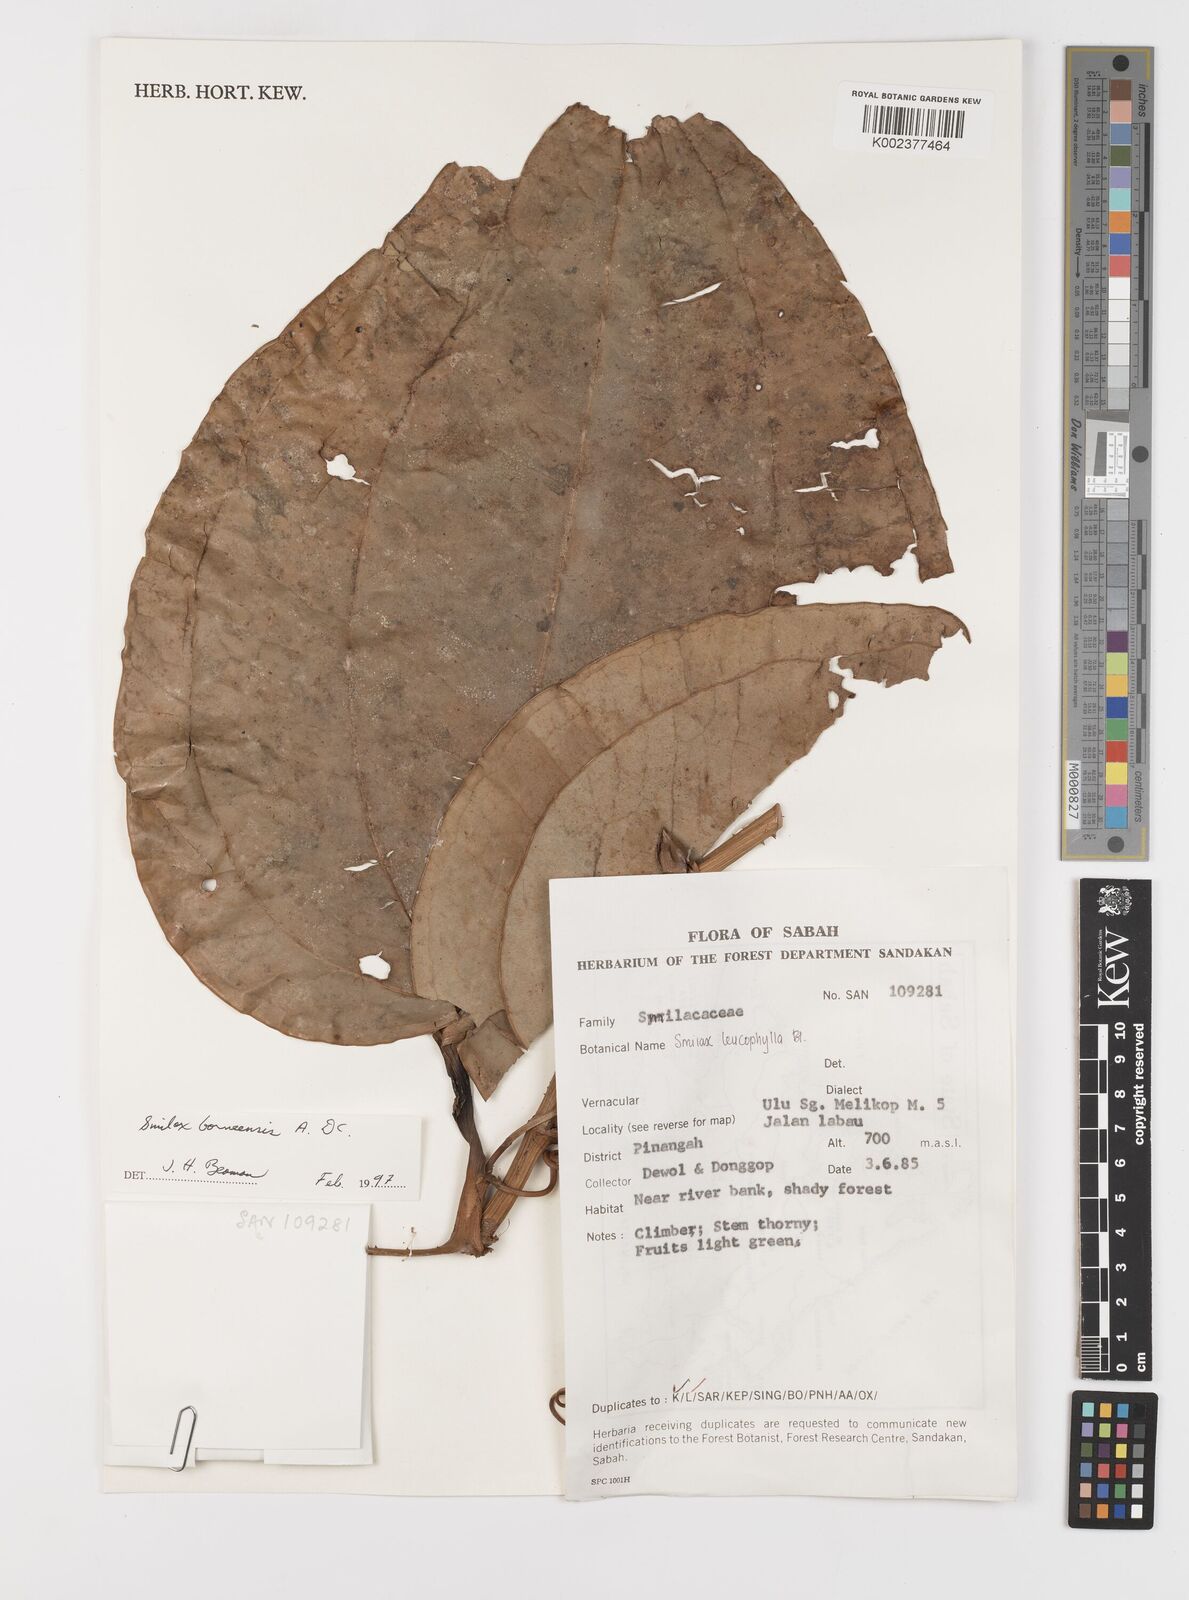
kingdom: Plantae
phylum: Tracheophyta
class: Liliopsida
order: Liliales
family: Smilacaceae
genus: Smilax
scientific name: Smilax borneensis
